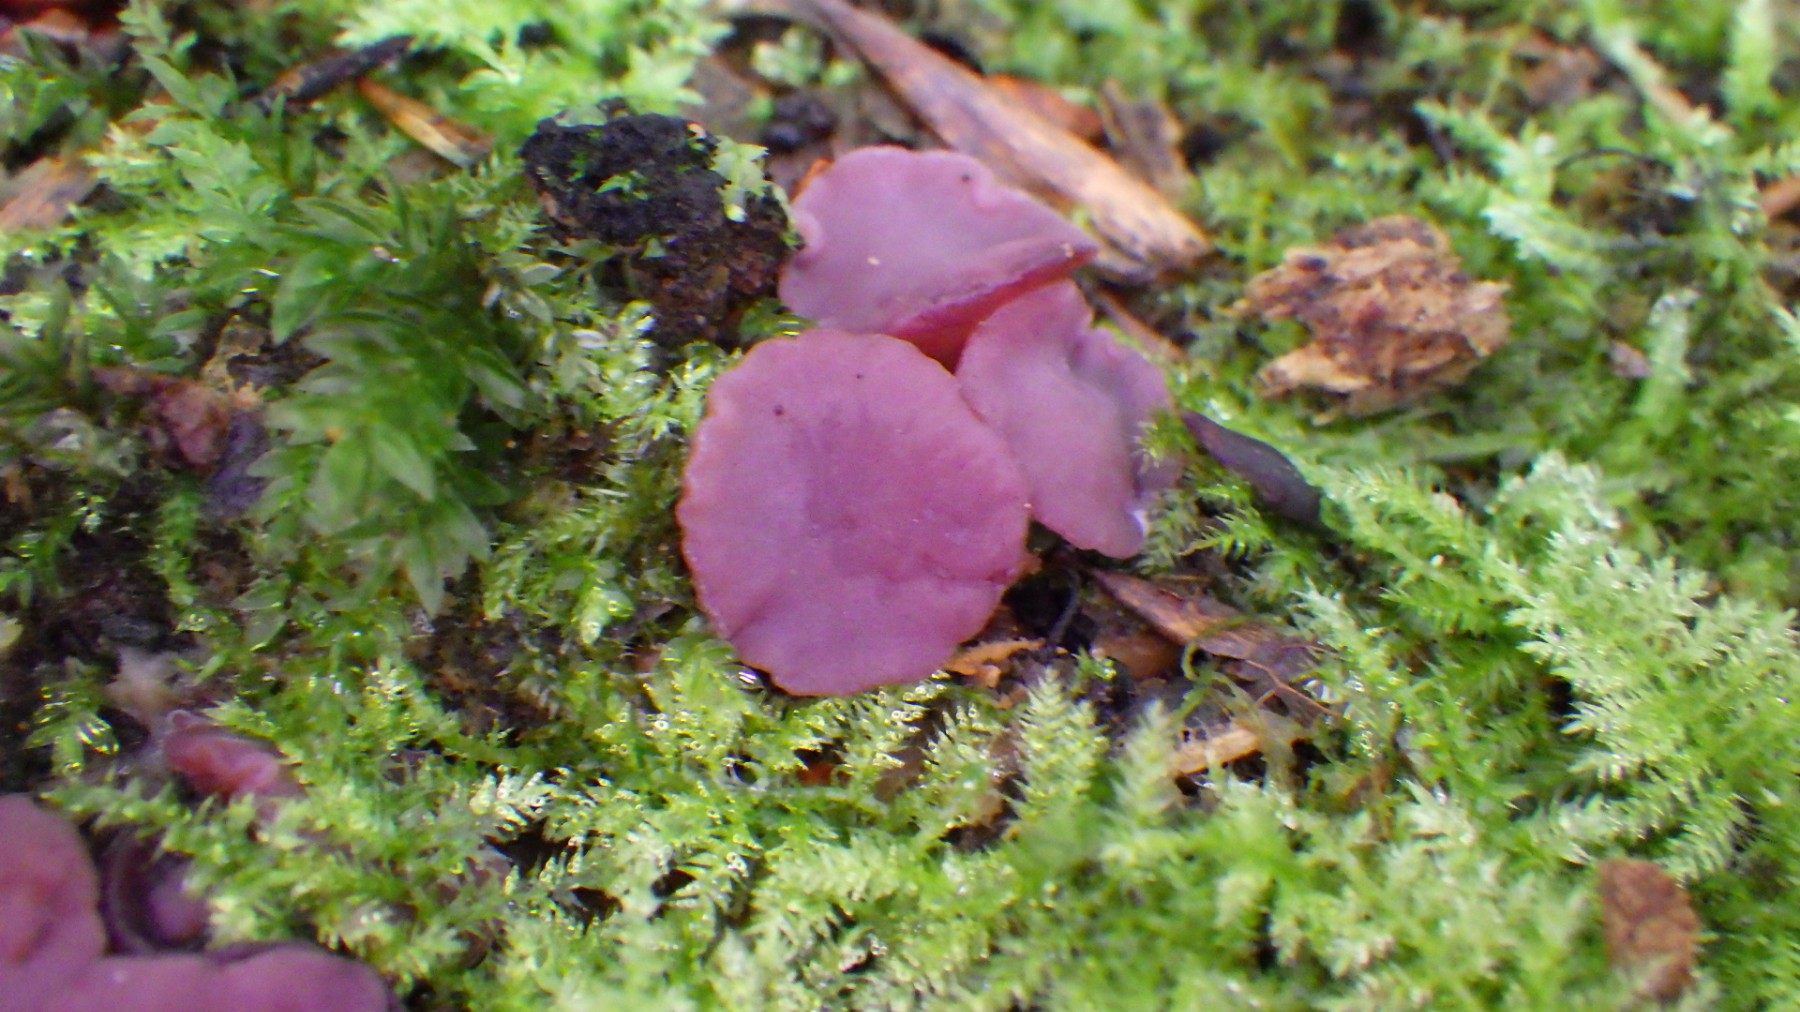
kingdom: Fungi
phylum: Ascomycota
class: Leotiomycetes
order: Helotiales
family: Gelatinodiscaceae
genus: Ascocoryne
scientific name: Ascocoryne cylichnium
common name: stor sejskive
